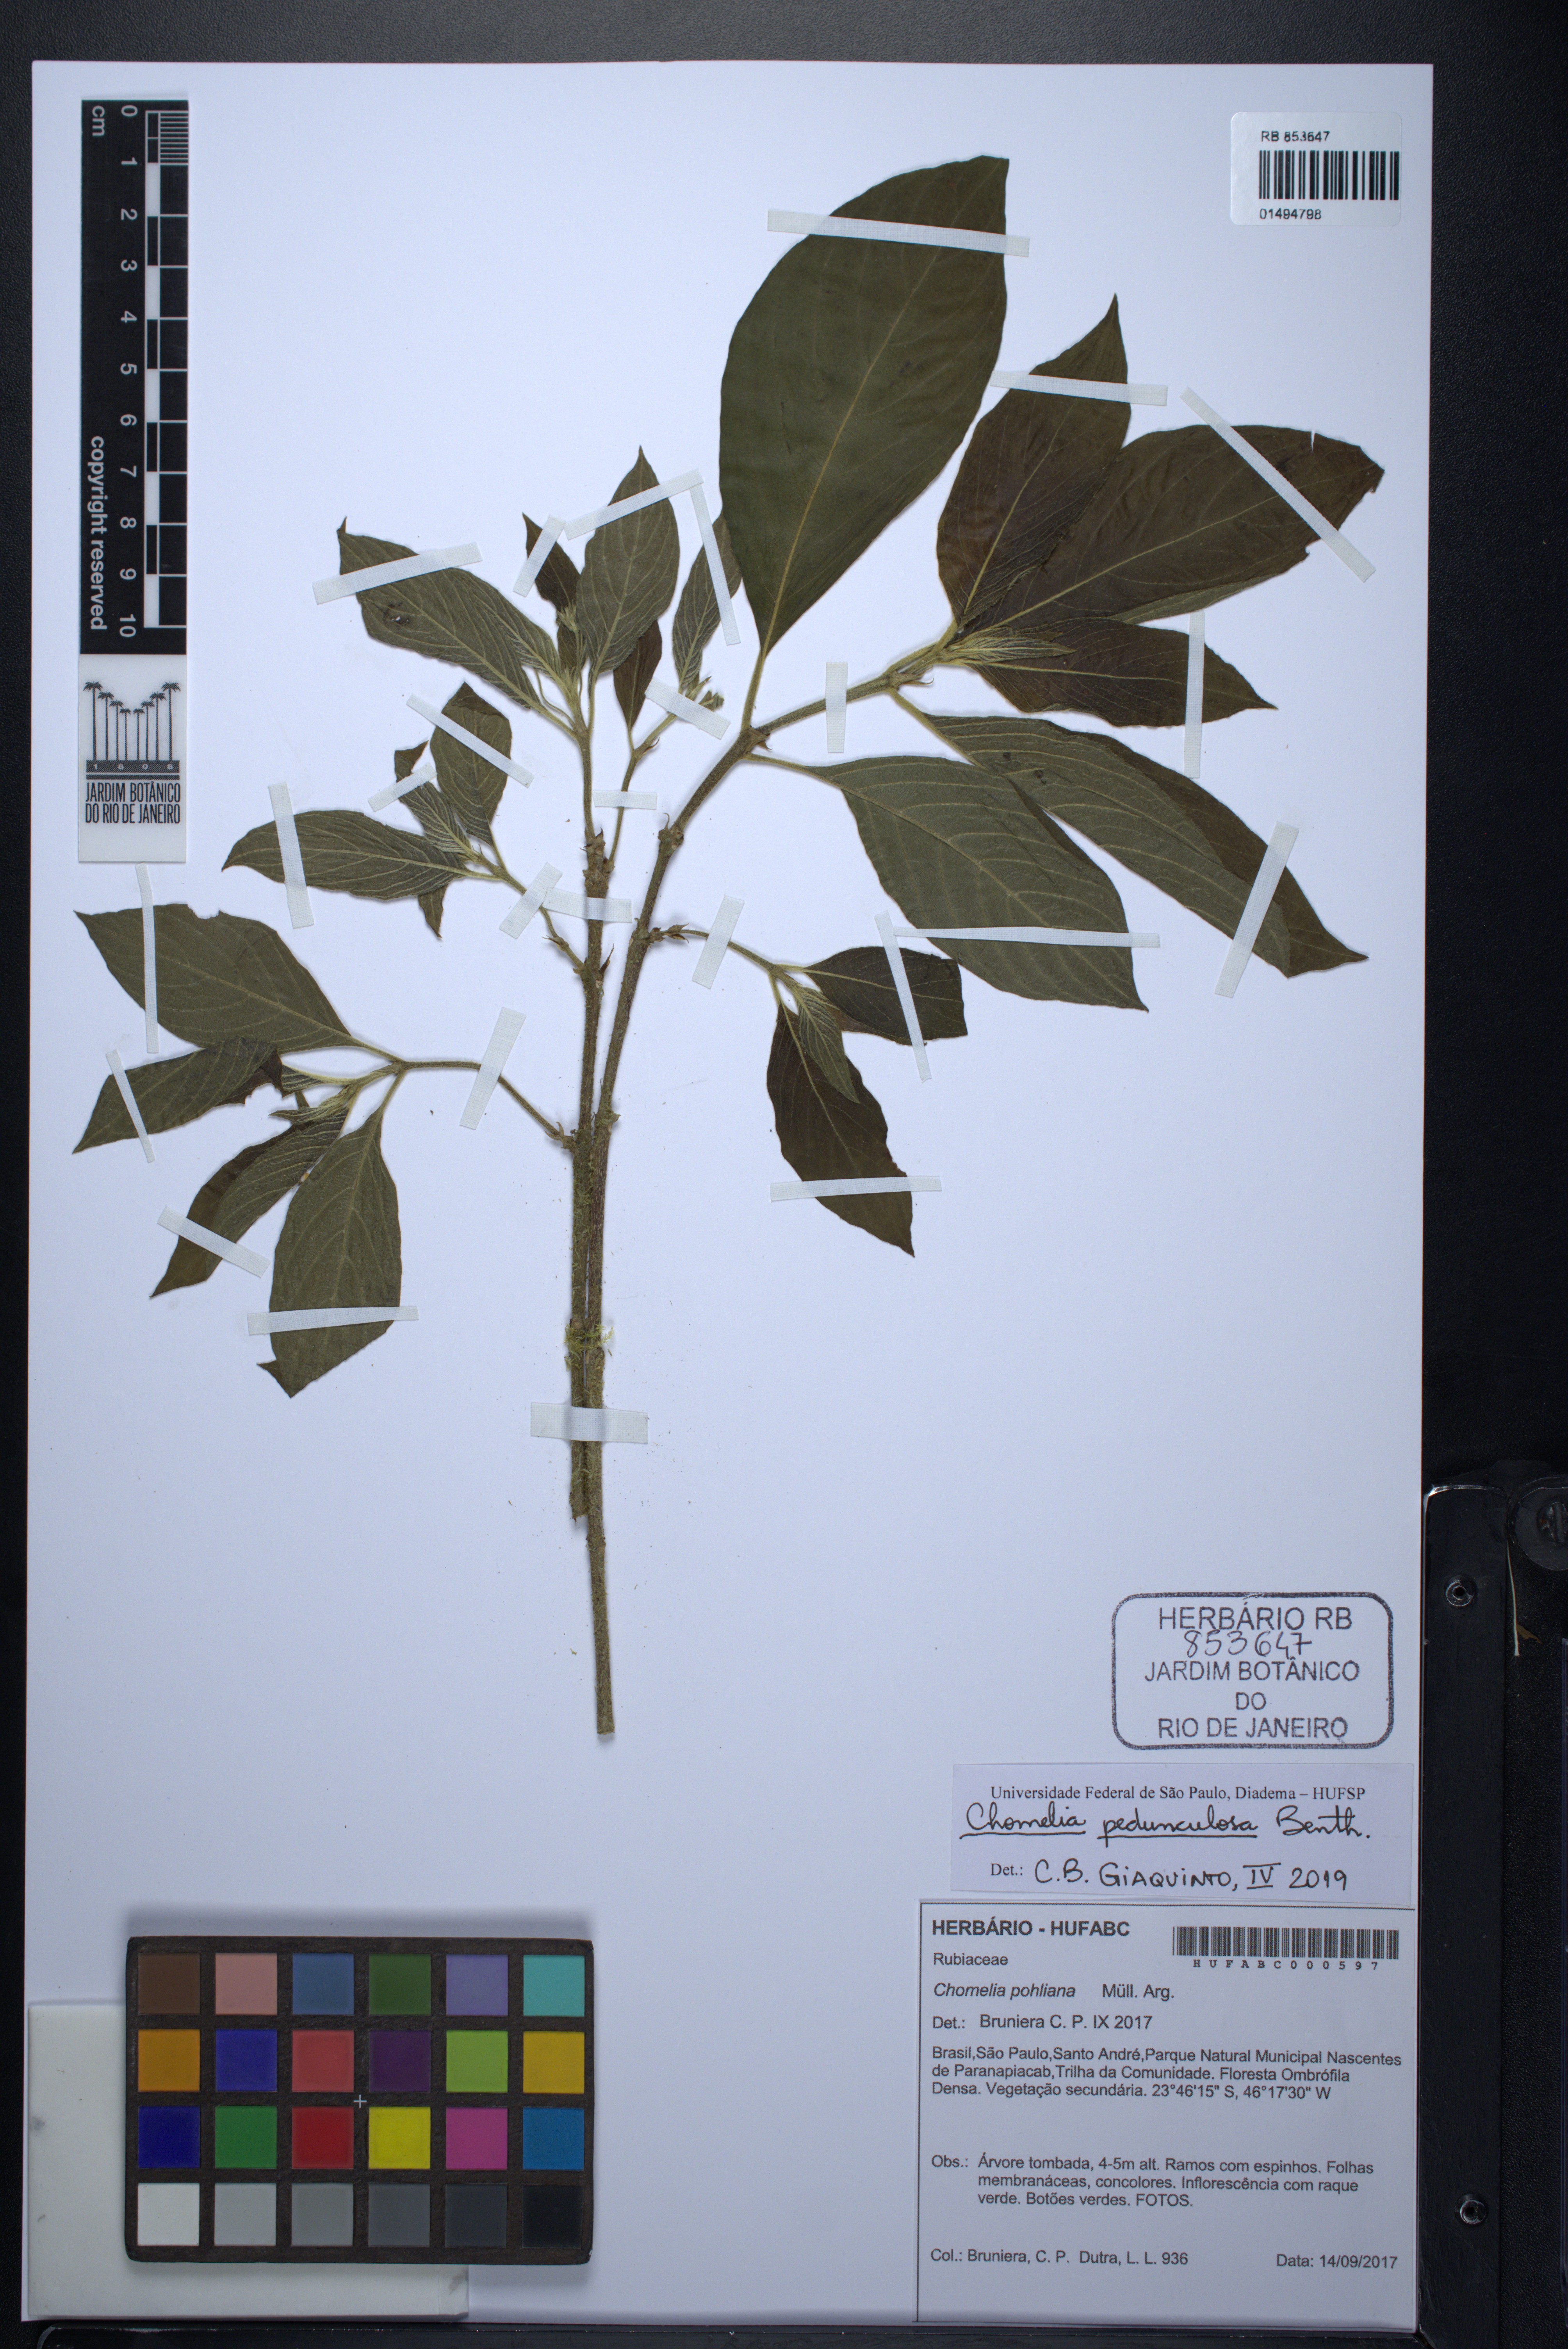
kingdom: Plantae
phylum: Tracheophyta
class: Magnoliopsida
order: Gentianales
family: Rubiaceae
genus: Chomelia
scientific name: Chomelia pedunculosa
